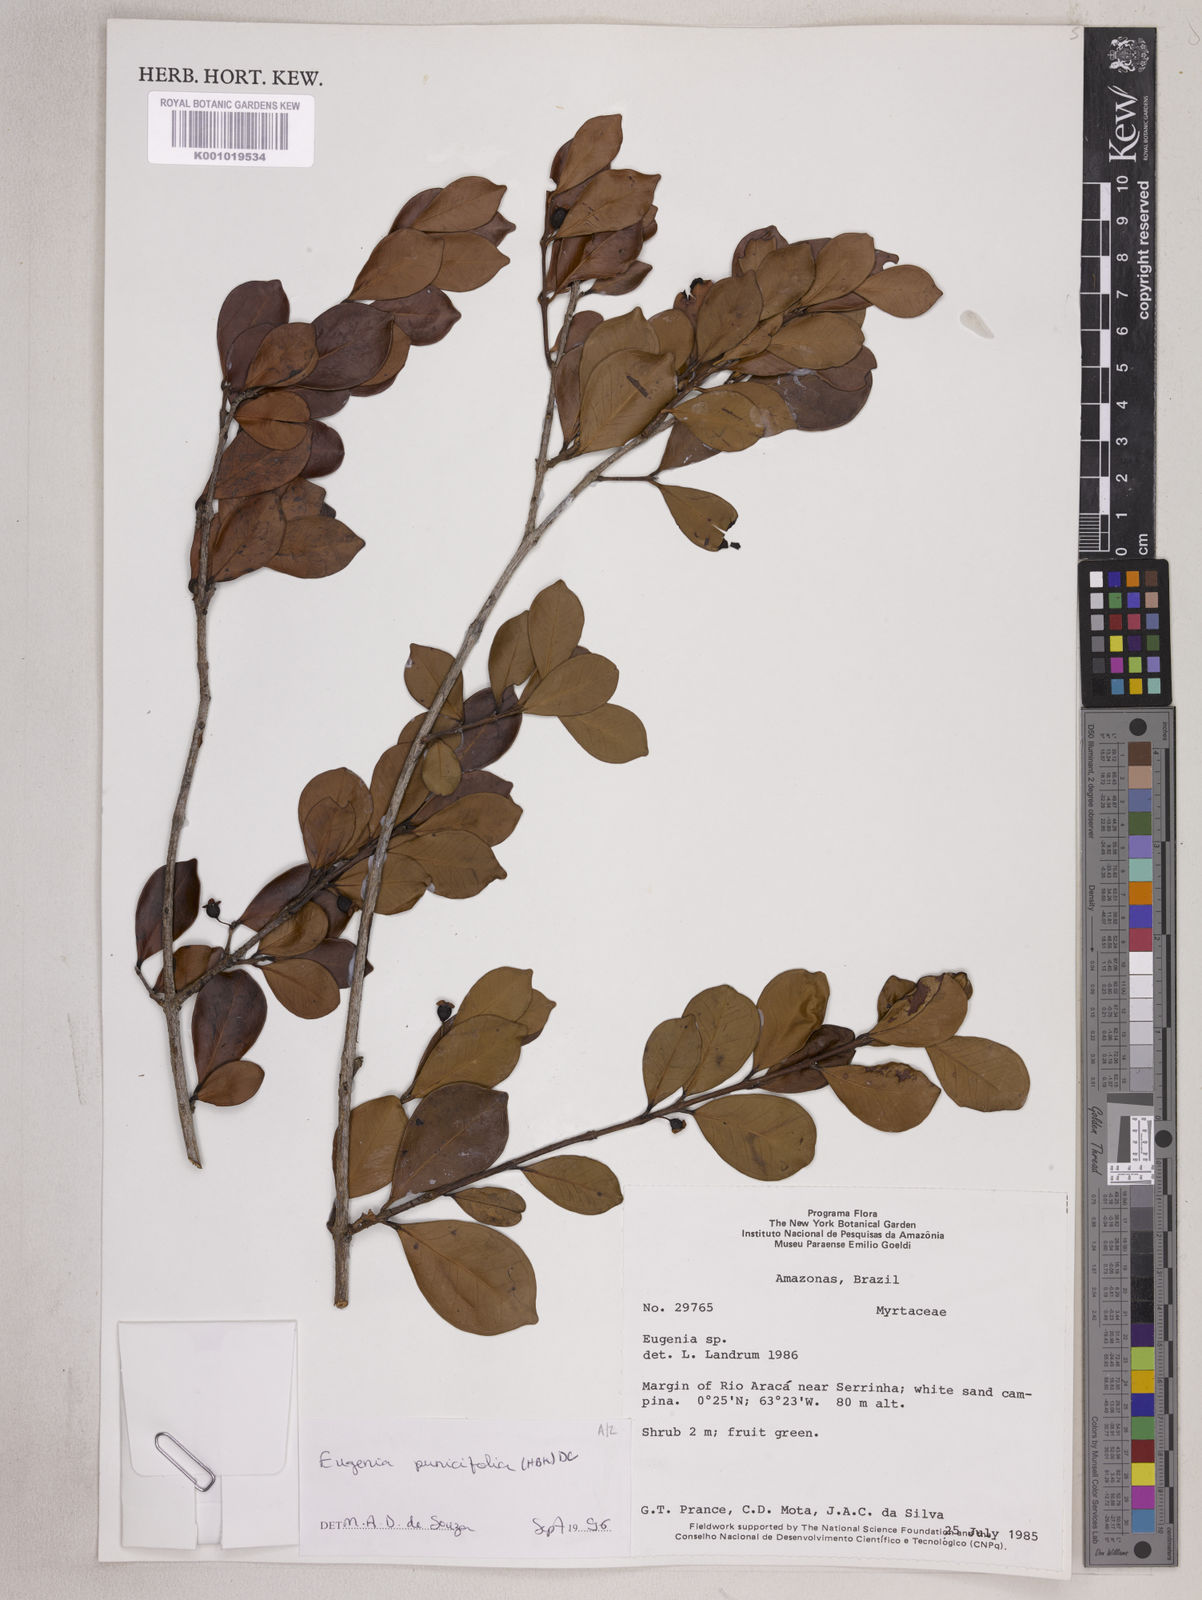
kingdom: Plantae
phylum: Tracheophyta
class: Magnoliopsida
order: Myrtales
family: Myrtaceae
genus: Eugenia
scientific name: Eugenia punicifolia
